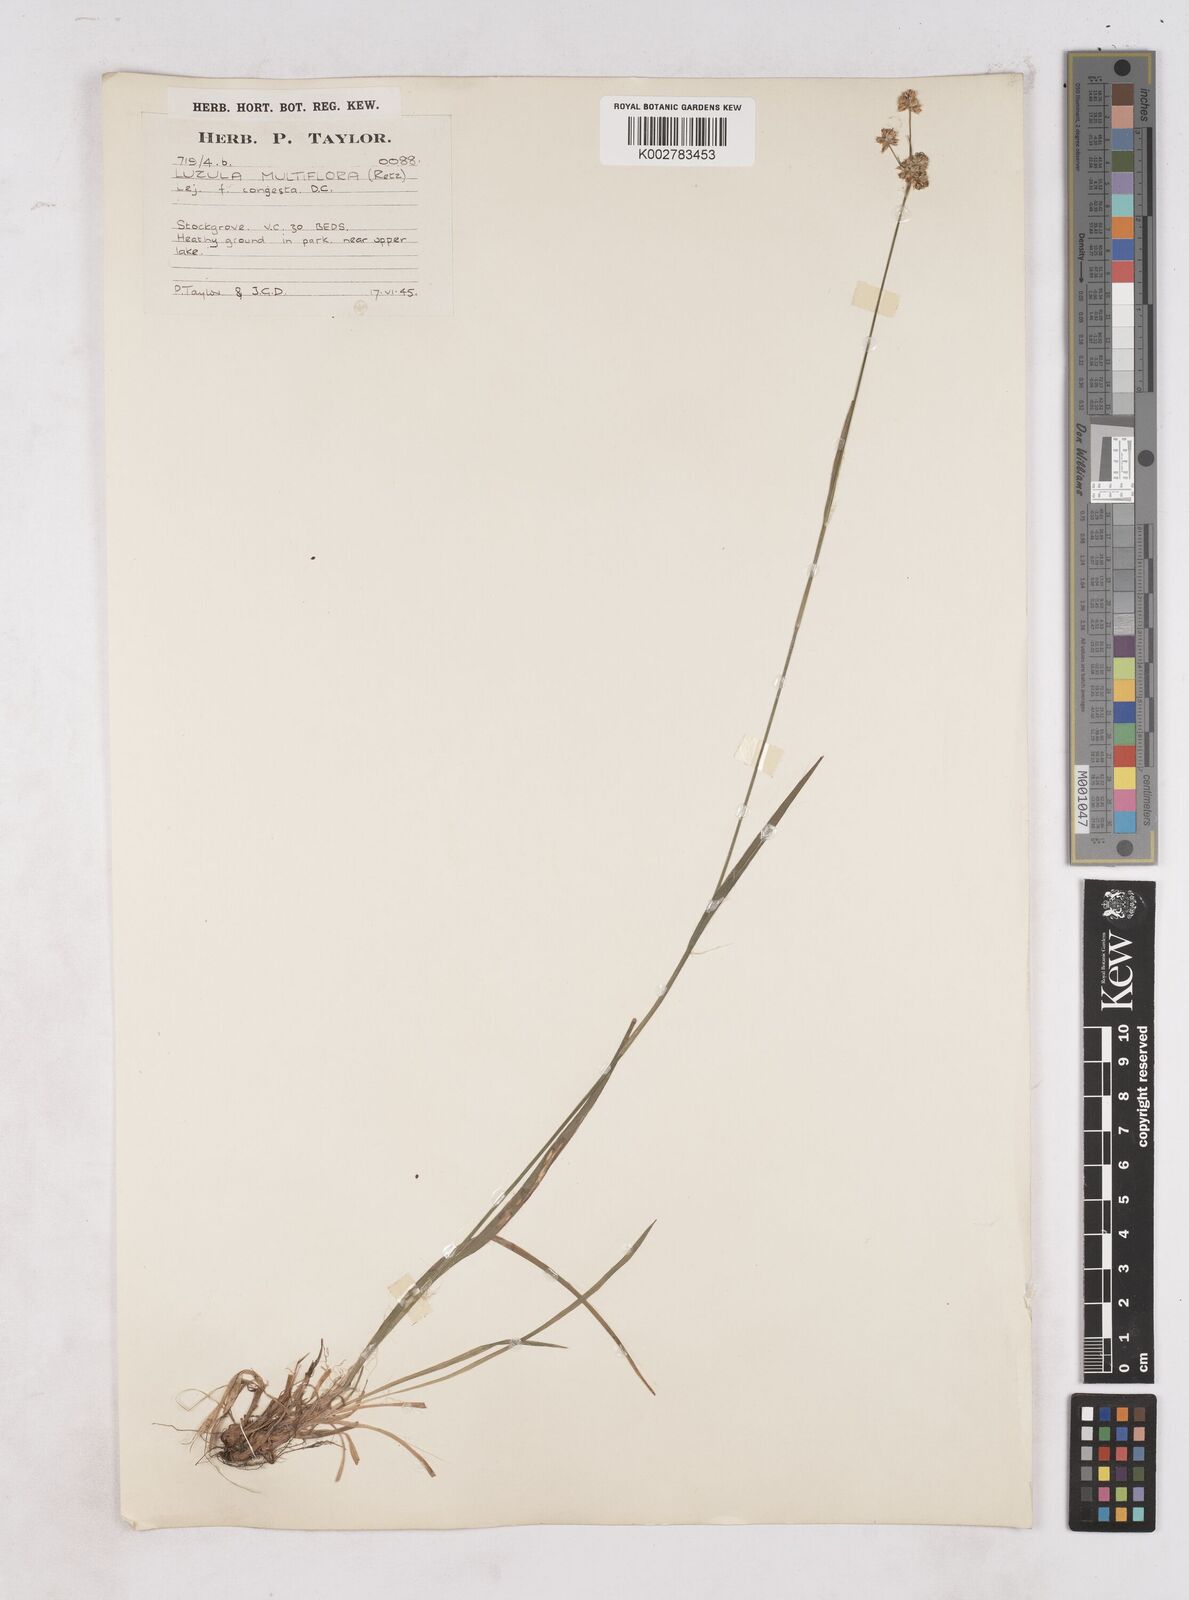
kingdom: Plantae
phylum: Tracheophyta
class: Liliopsida
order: Poales
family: Juncaceae
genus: Luzula
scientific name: Luzula campestris
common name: Field wood-rush
